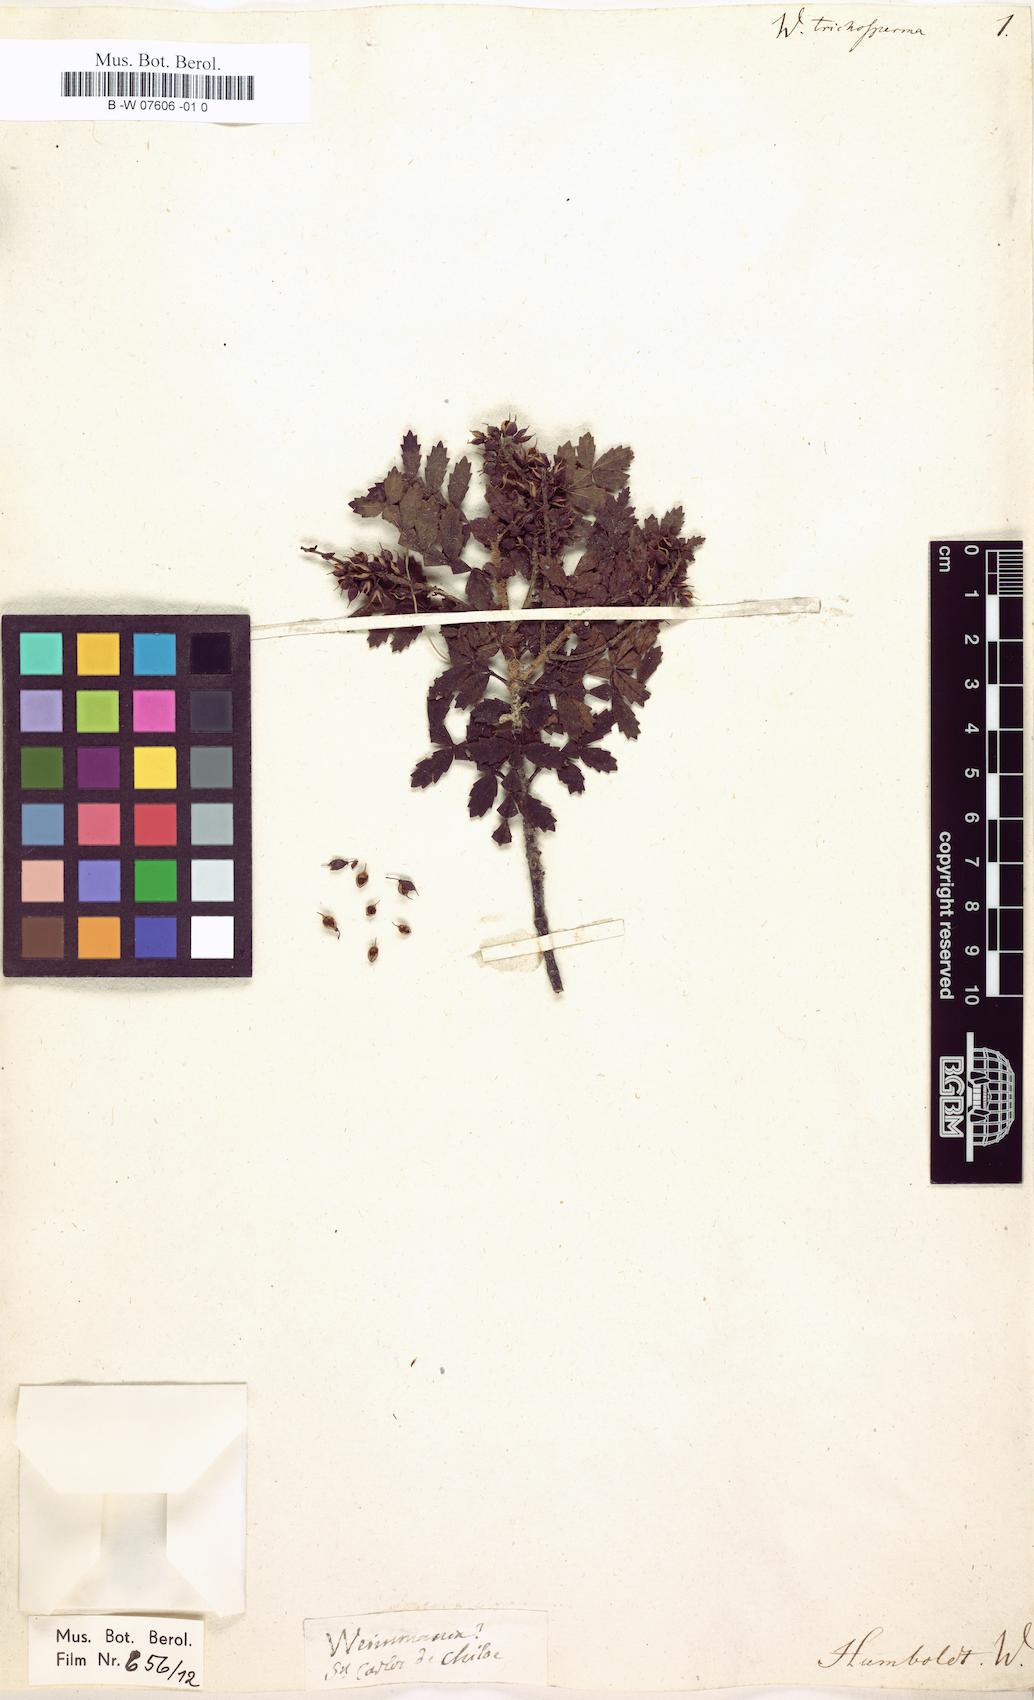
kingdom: Plantae
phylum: Tracheophyta
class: Magnoliopsida
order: Oxalidales
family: Cunoniaceae
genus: Weinmannia
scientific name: Weinmannia trichosperma
